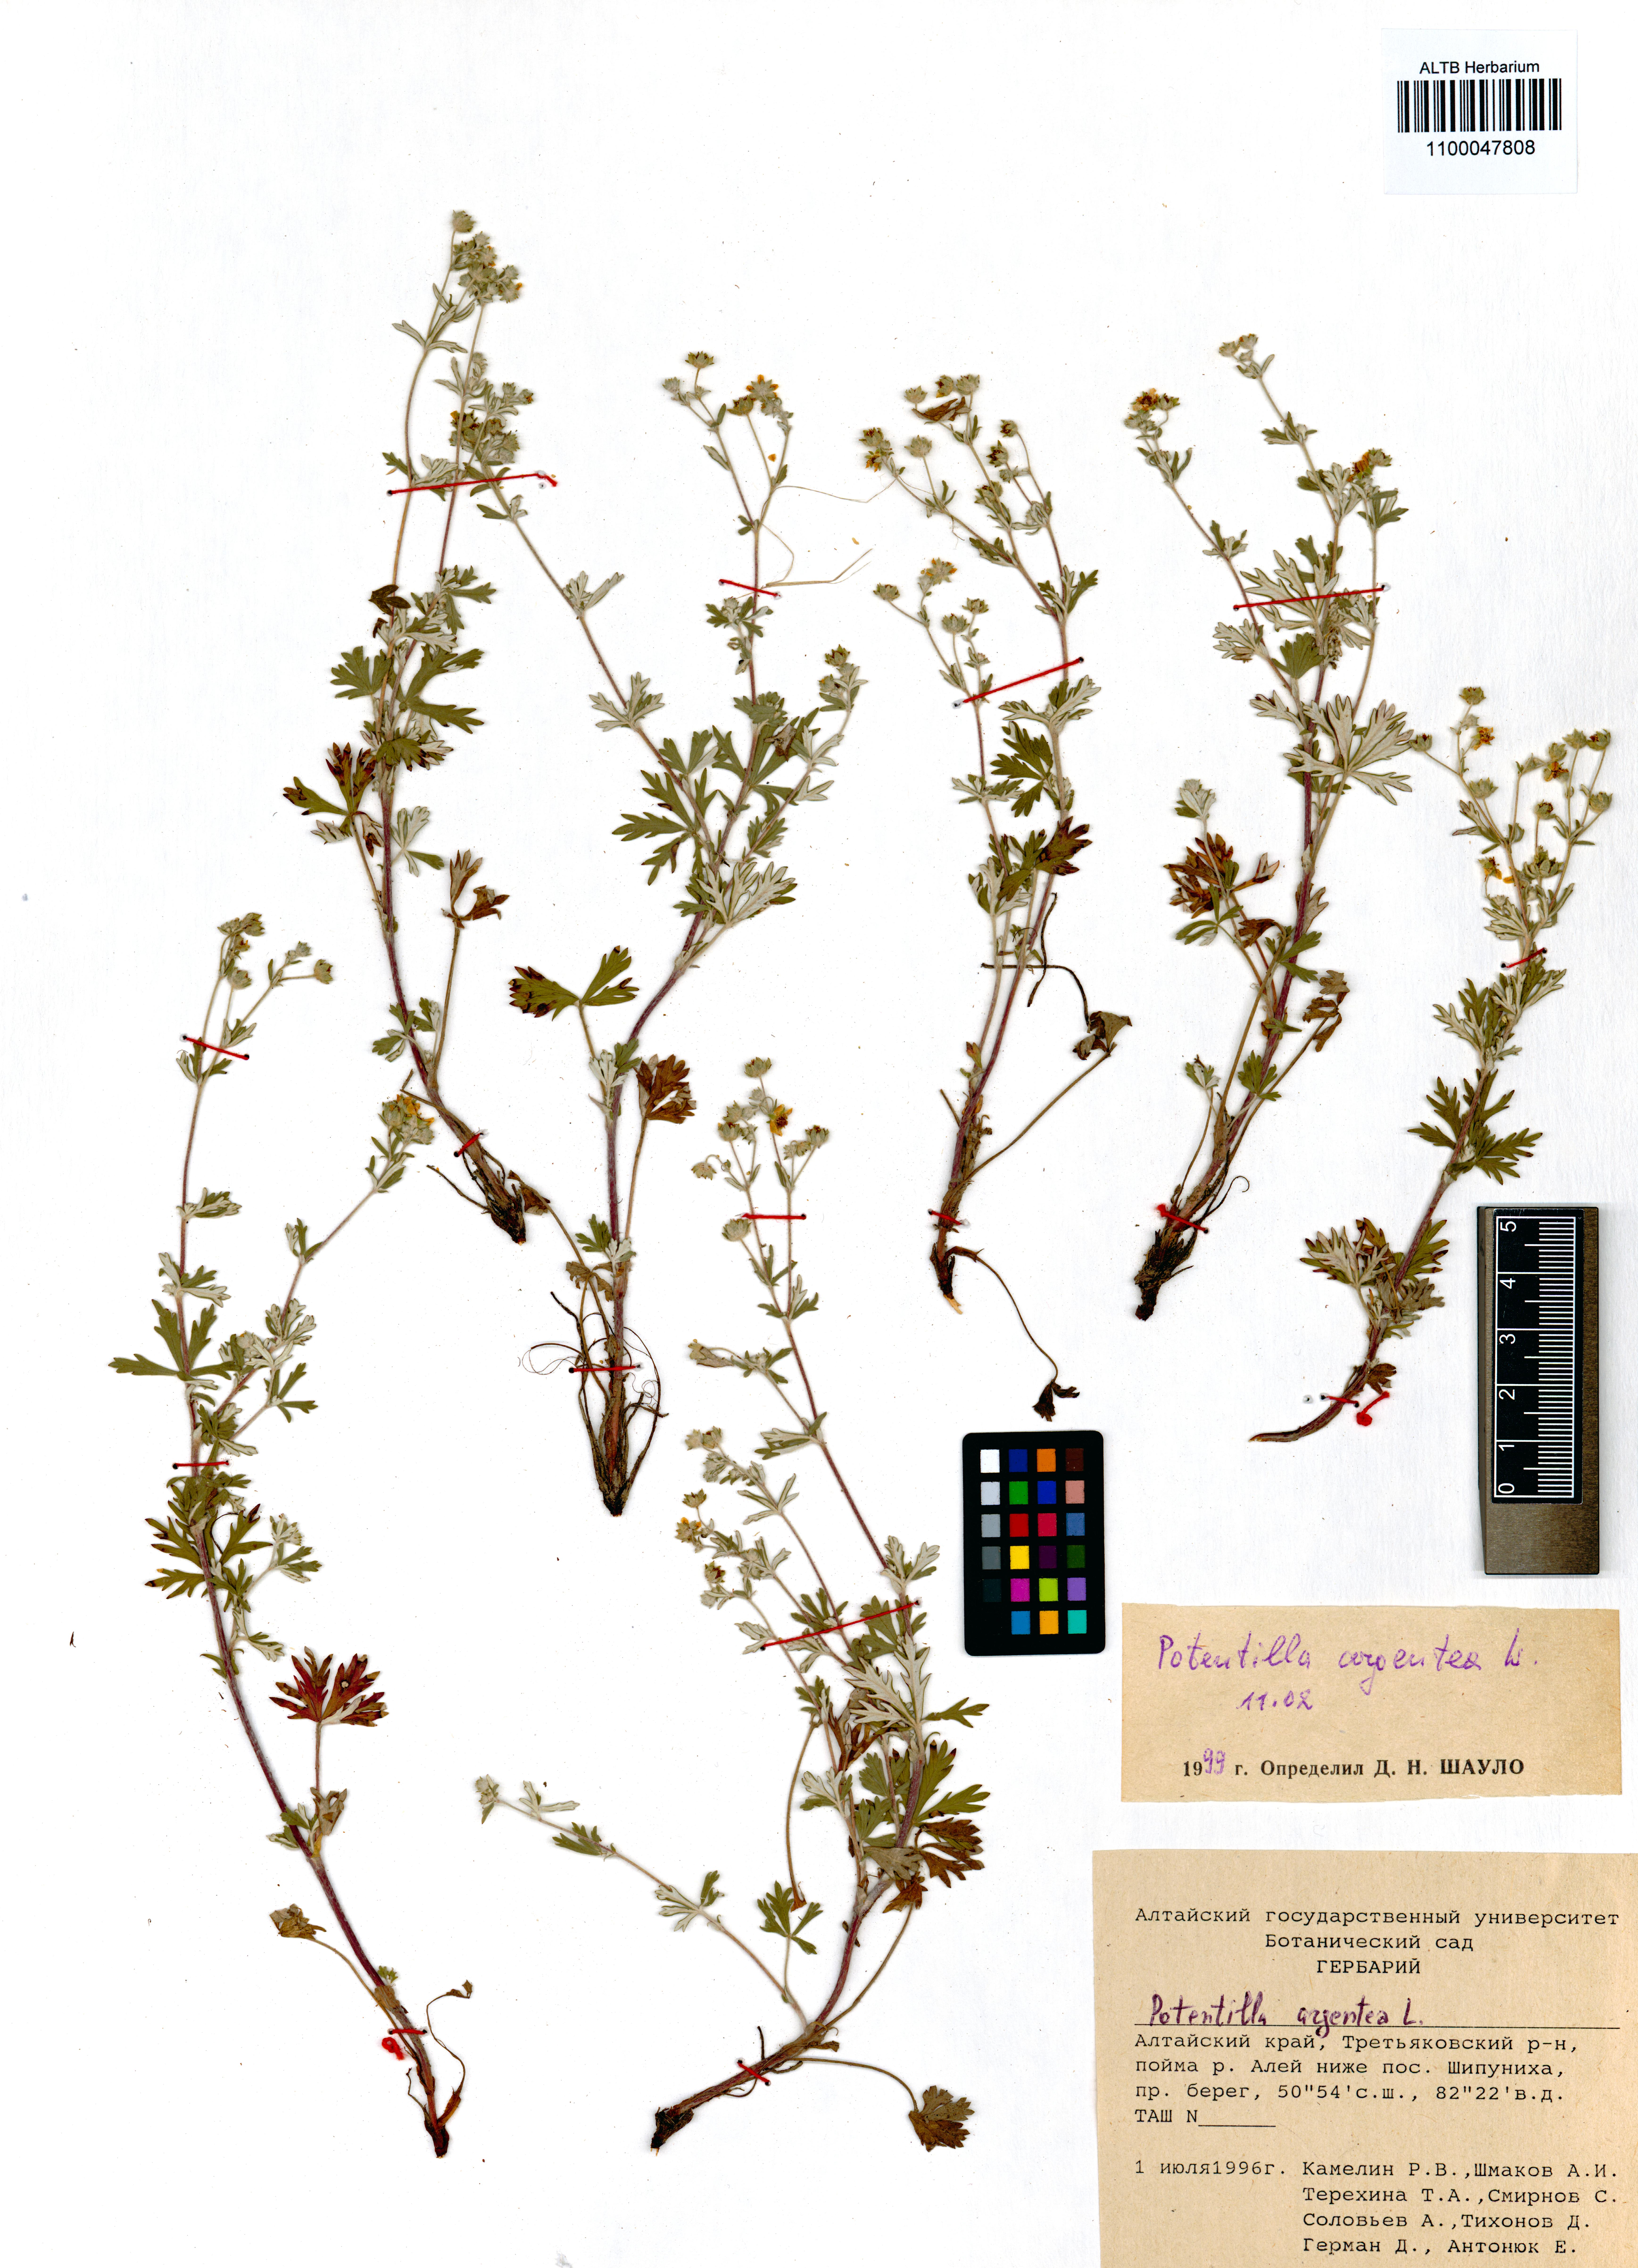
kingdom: Plantae
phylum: Tracheophyta
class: Magnoliopsida
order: Rosales
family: Rosaceae
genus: Potentilla
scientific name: Potentilla argentea
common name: Hoary cinquefoil
